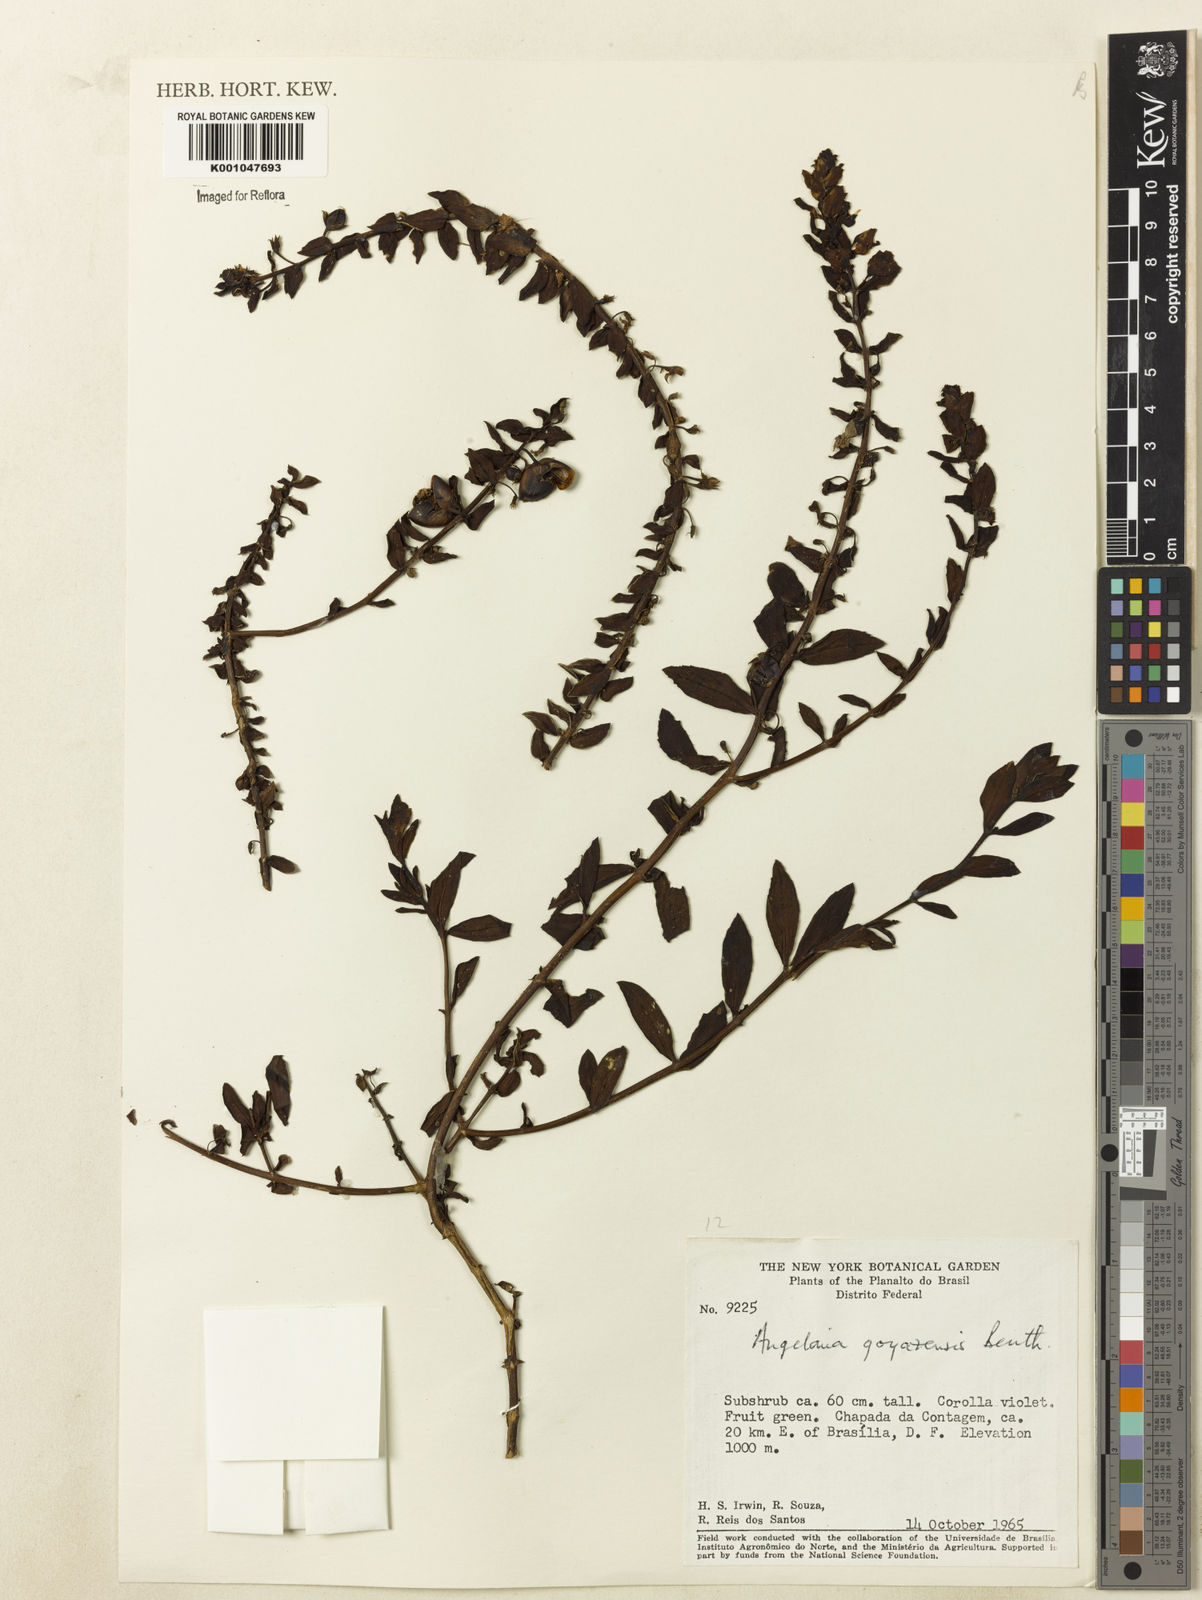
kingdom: Plantae
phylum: Tracheophyta
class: Magnoliopsida
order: Lamiales
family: Plantaginaceae
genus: Angelonia
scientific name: Angelonia goyazensis
